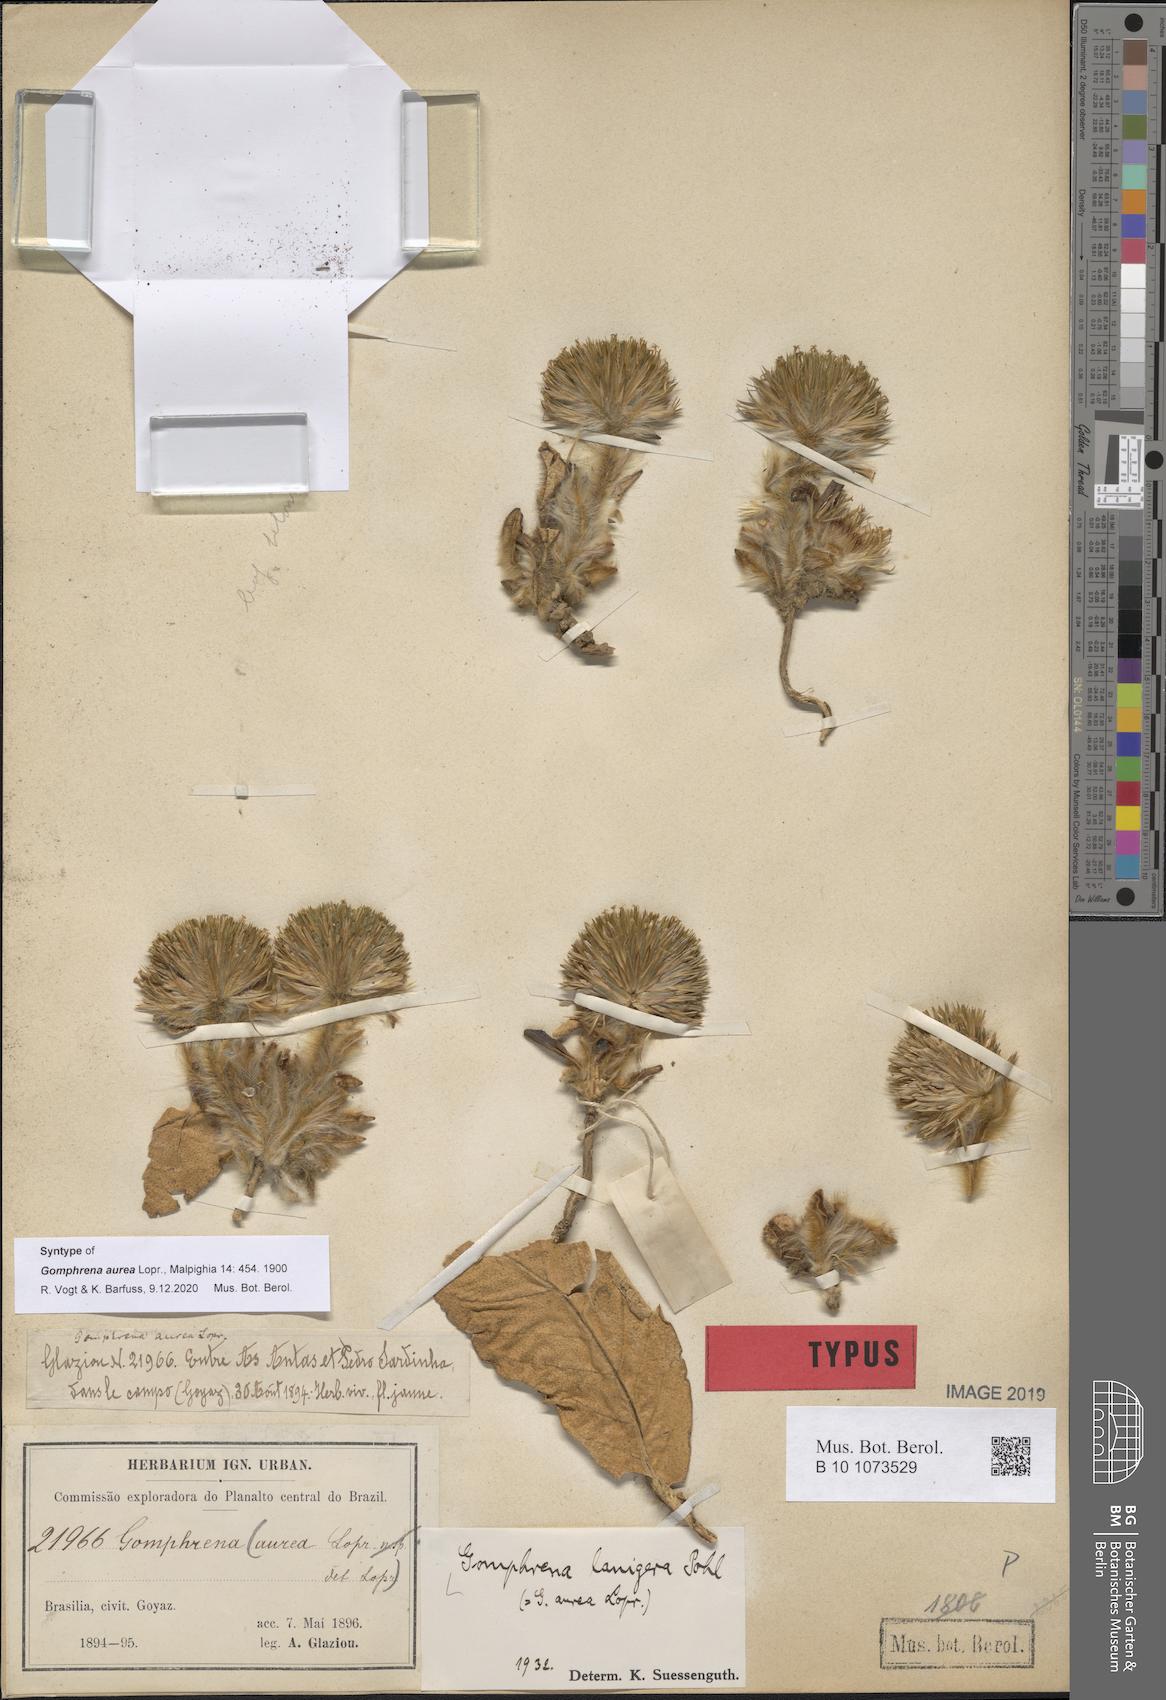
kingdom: Plantae
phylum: Tracheophyta
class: Magnoliopsida
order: Caryophyllales
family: Amaranthaceae
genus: Gomphrena
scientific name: Gomphrena lanigera
